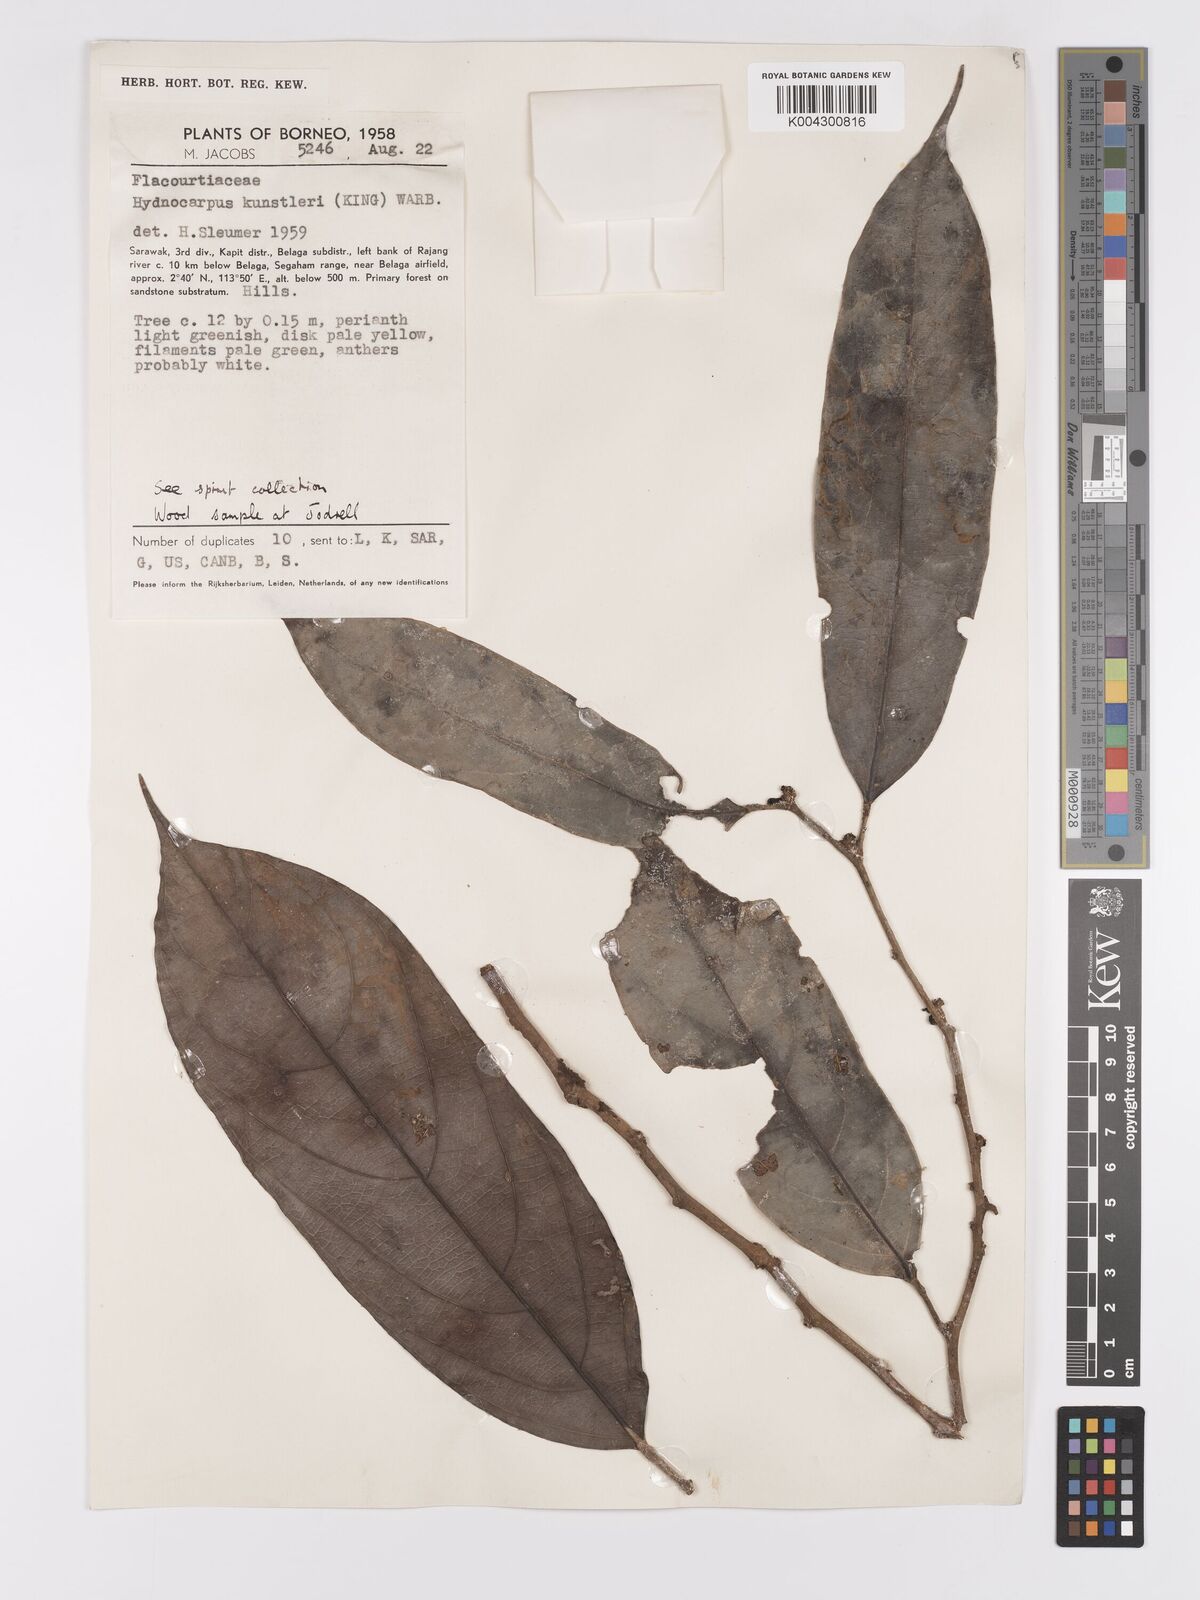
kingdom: Plantae
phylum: Tracheophyta
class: Magnoliopsida
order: Malpighiales
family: Achariaceae
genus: Hydnocarpus
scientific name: Hydnocarpus kunstleri
